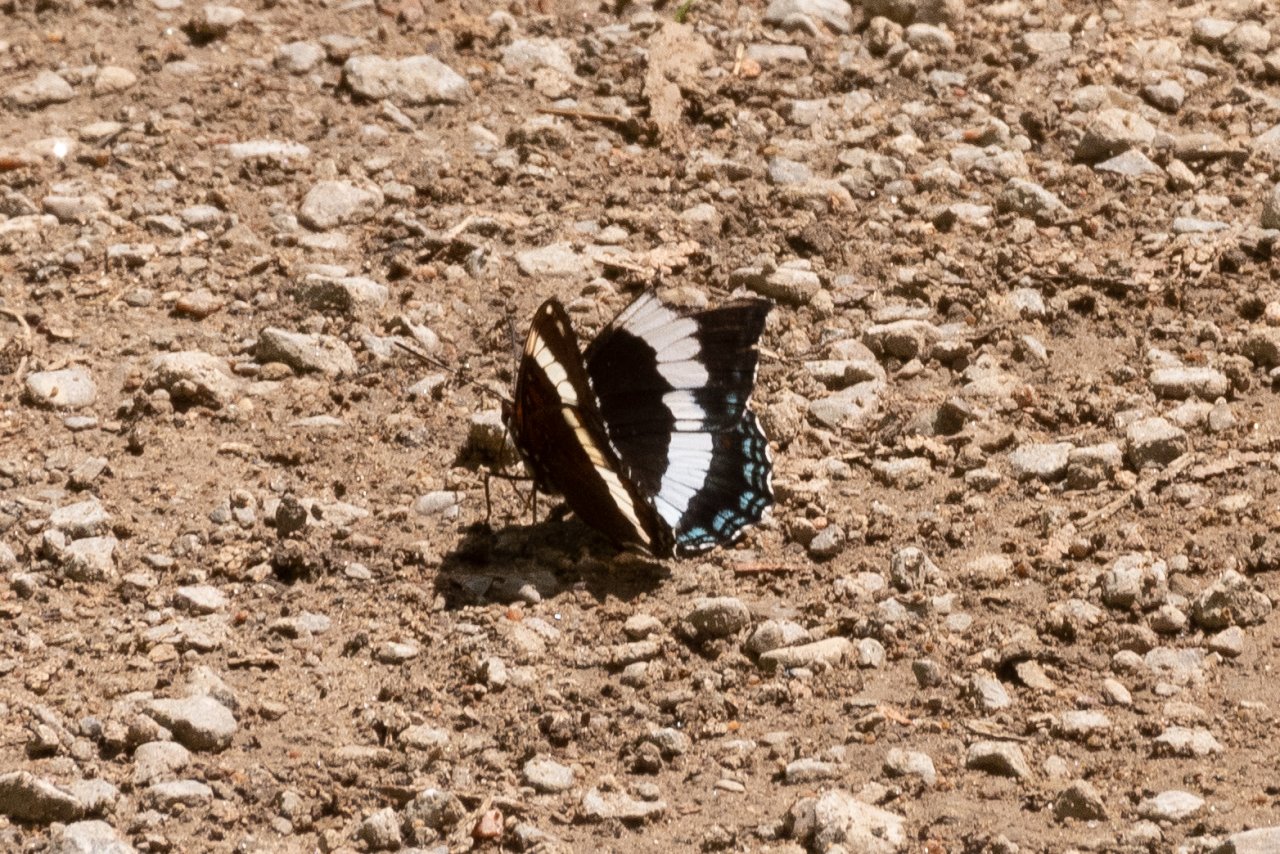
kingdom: Animalia
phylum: Arthropoda
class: Insecta
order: Lepidoptera
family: Nymphalidae
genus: Limenitis
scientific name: Limenitis arthemis
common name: Red-spotted Admiral
